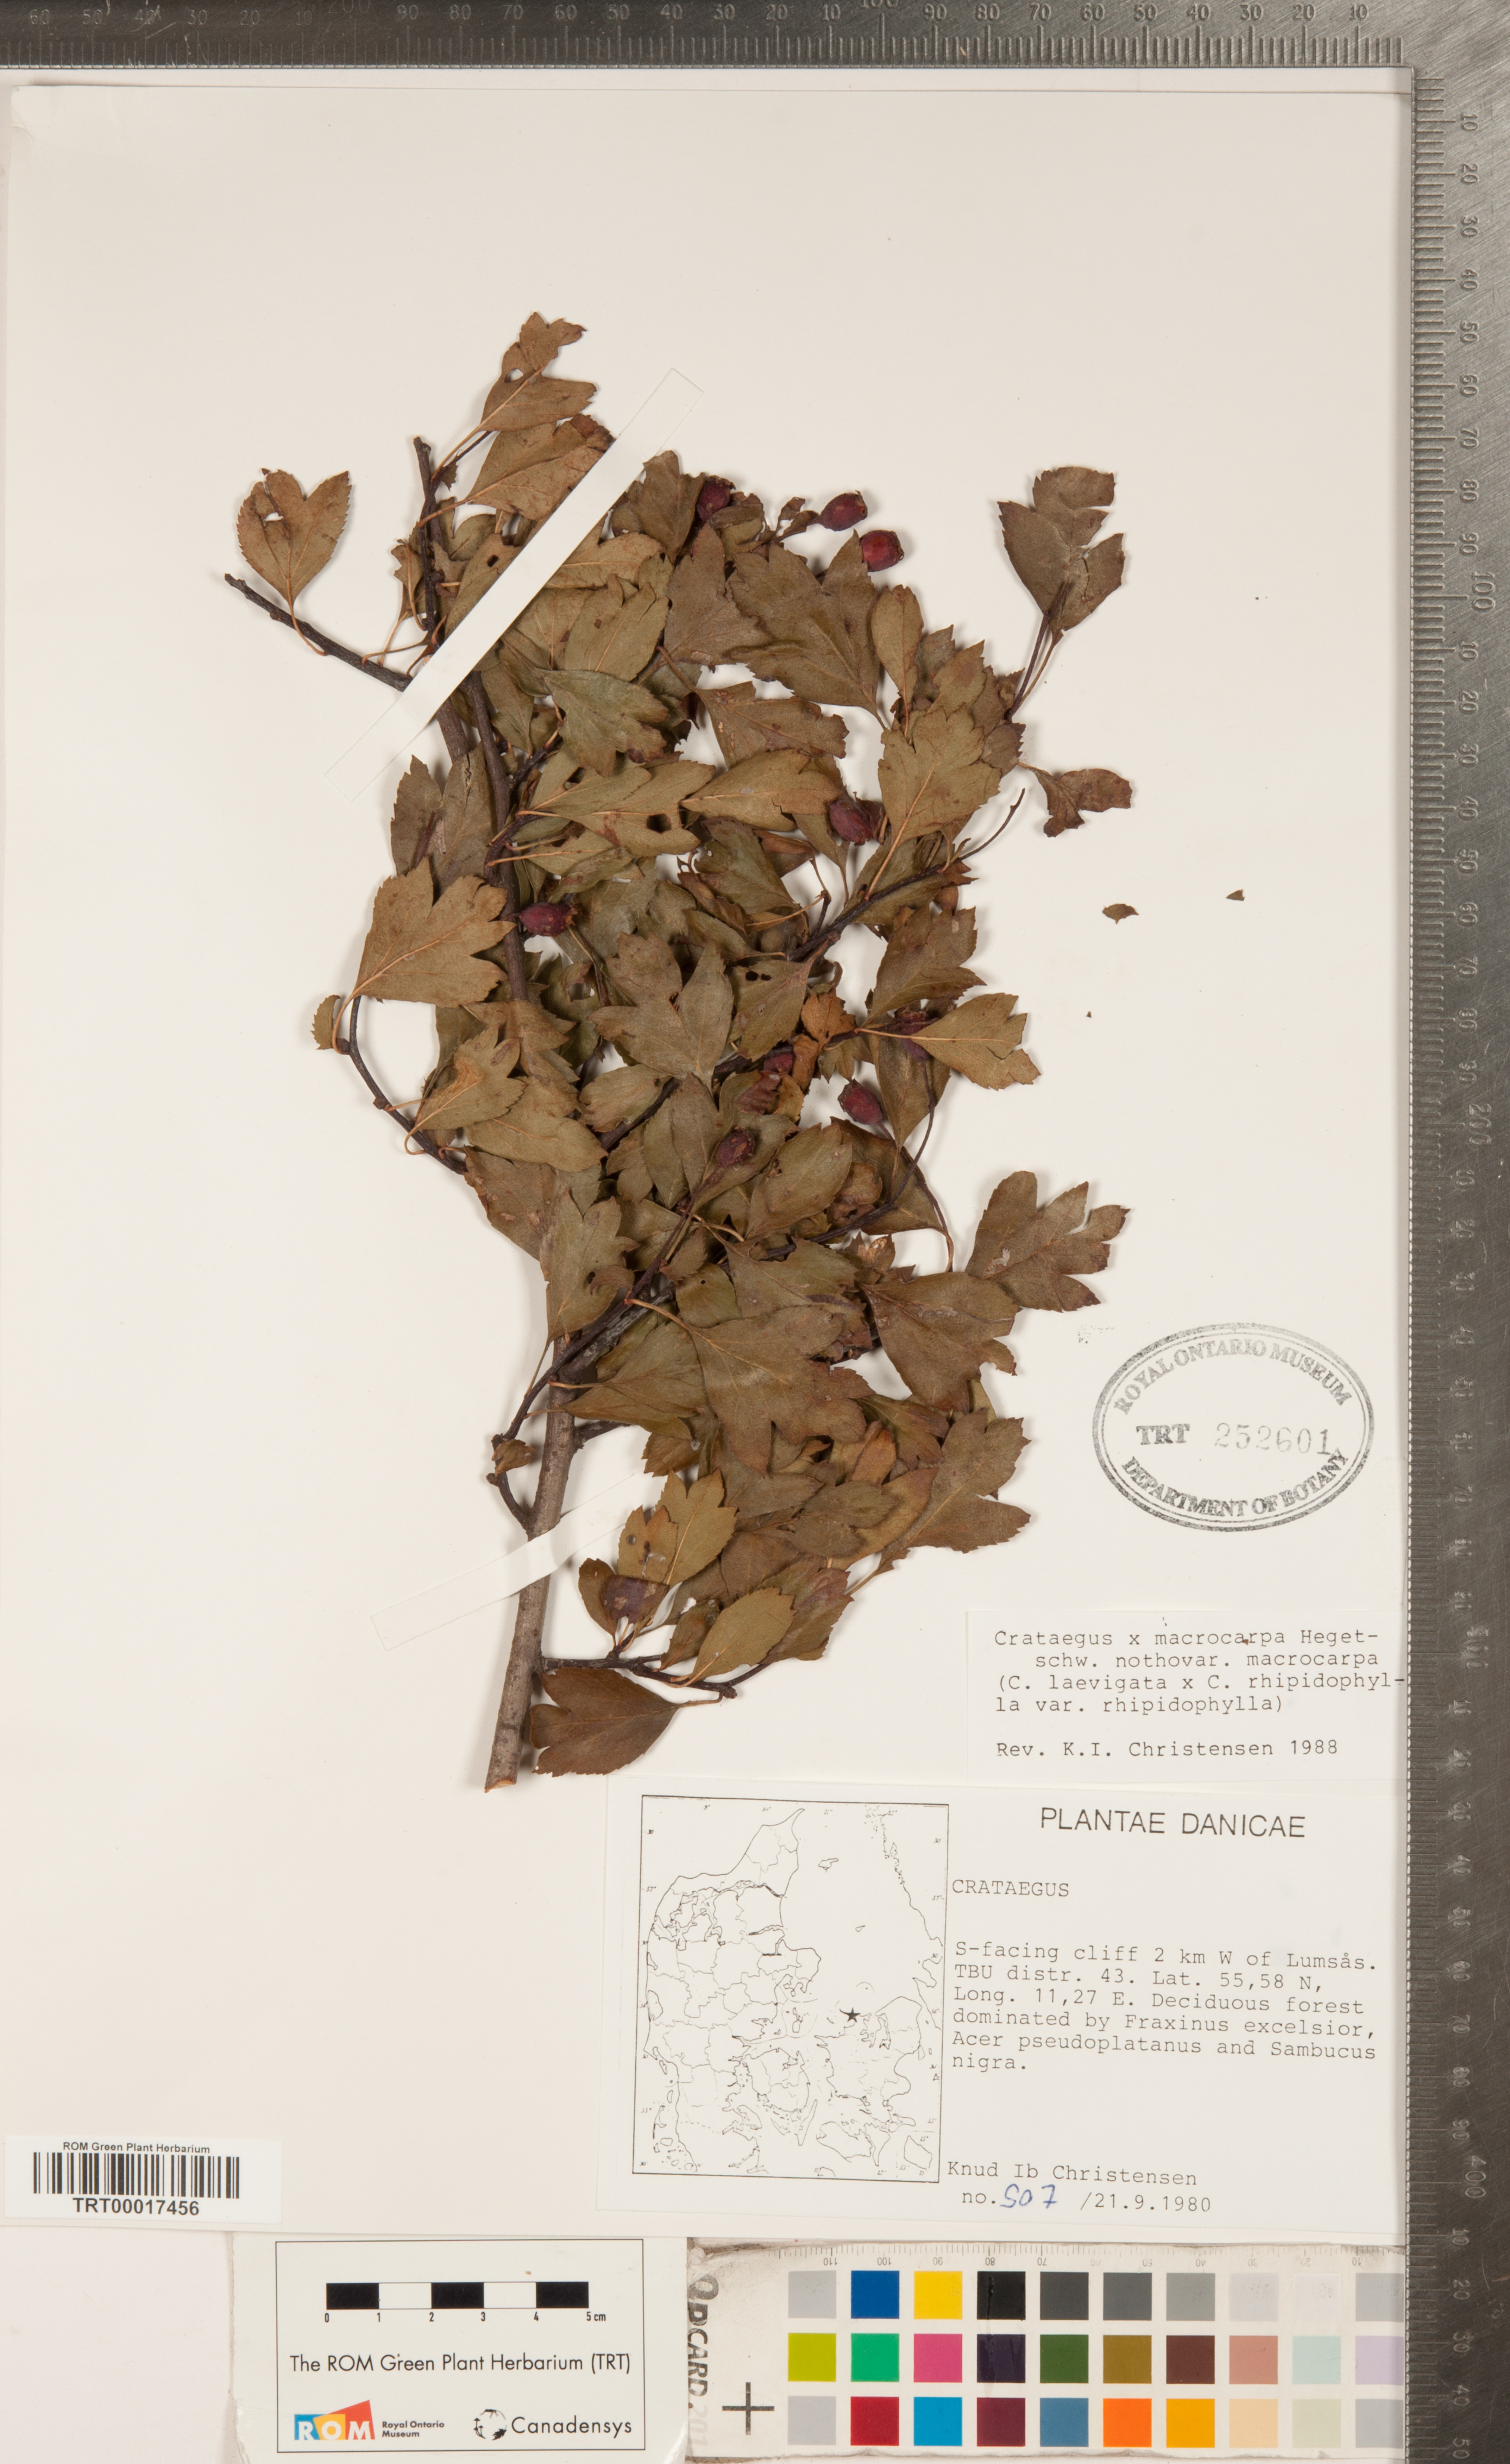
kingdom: Plantae
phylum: Tracheophyta
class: Magnoliopsida
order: Rosales
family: Rosaceae
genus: Crataegus
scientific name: Crataegus macrocarpa
